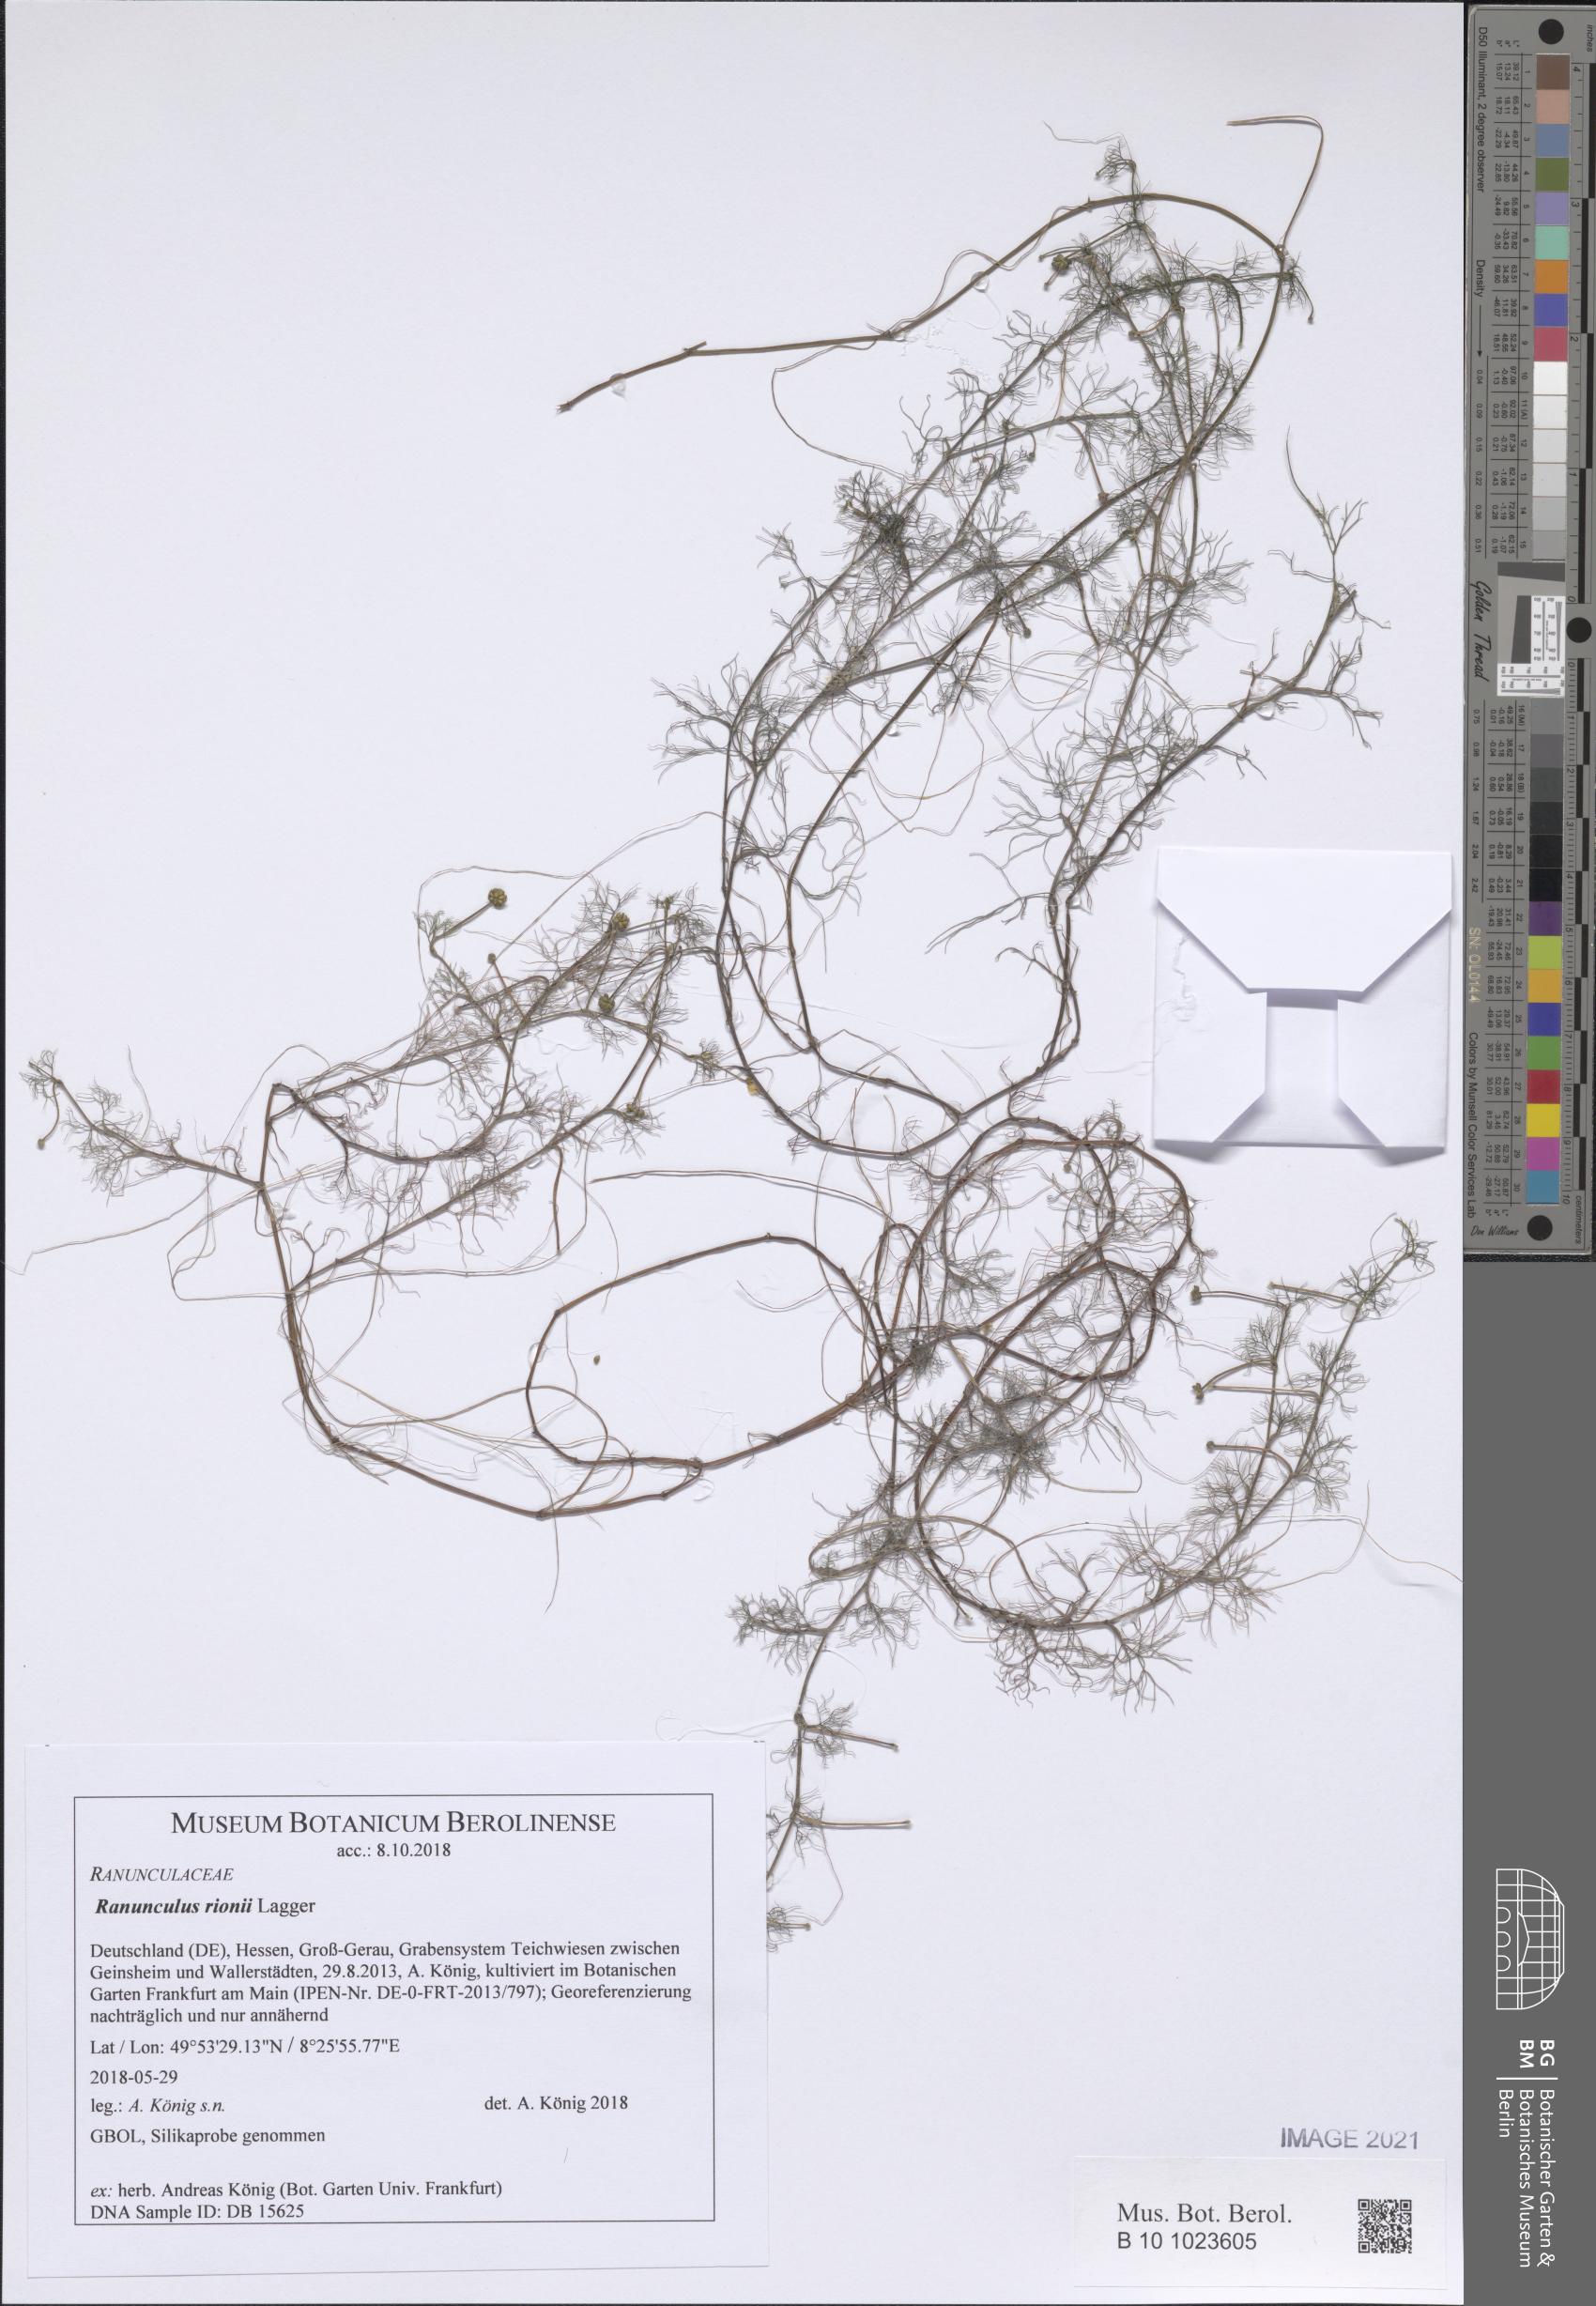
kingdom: Plantae
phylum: Tracheophyta
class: Magnoliopsida
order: Ranunculales
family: Ranunculaceae
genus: Ranunculus
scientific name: Ranunculus rionii
